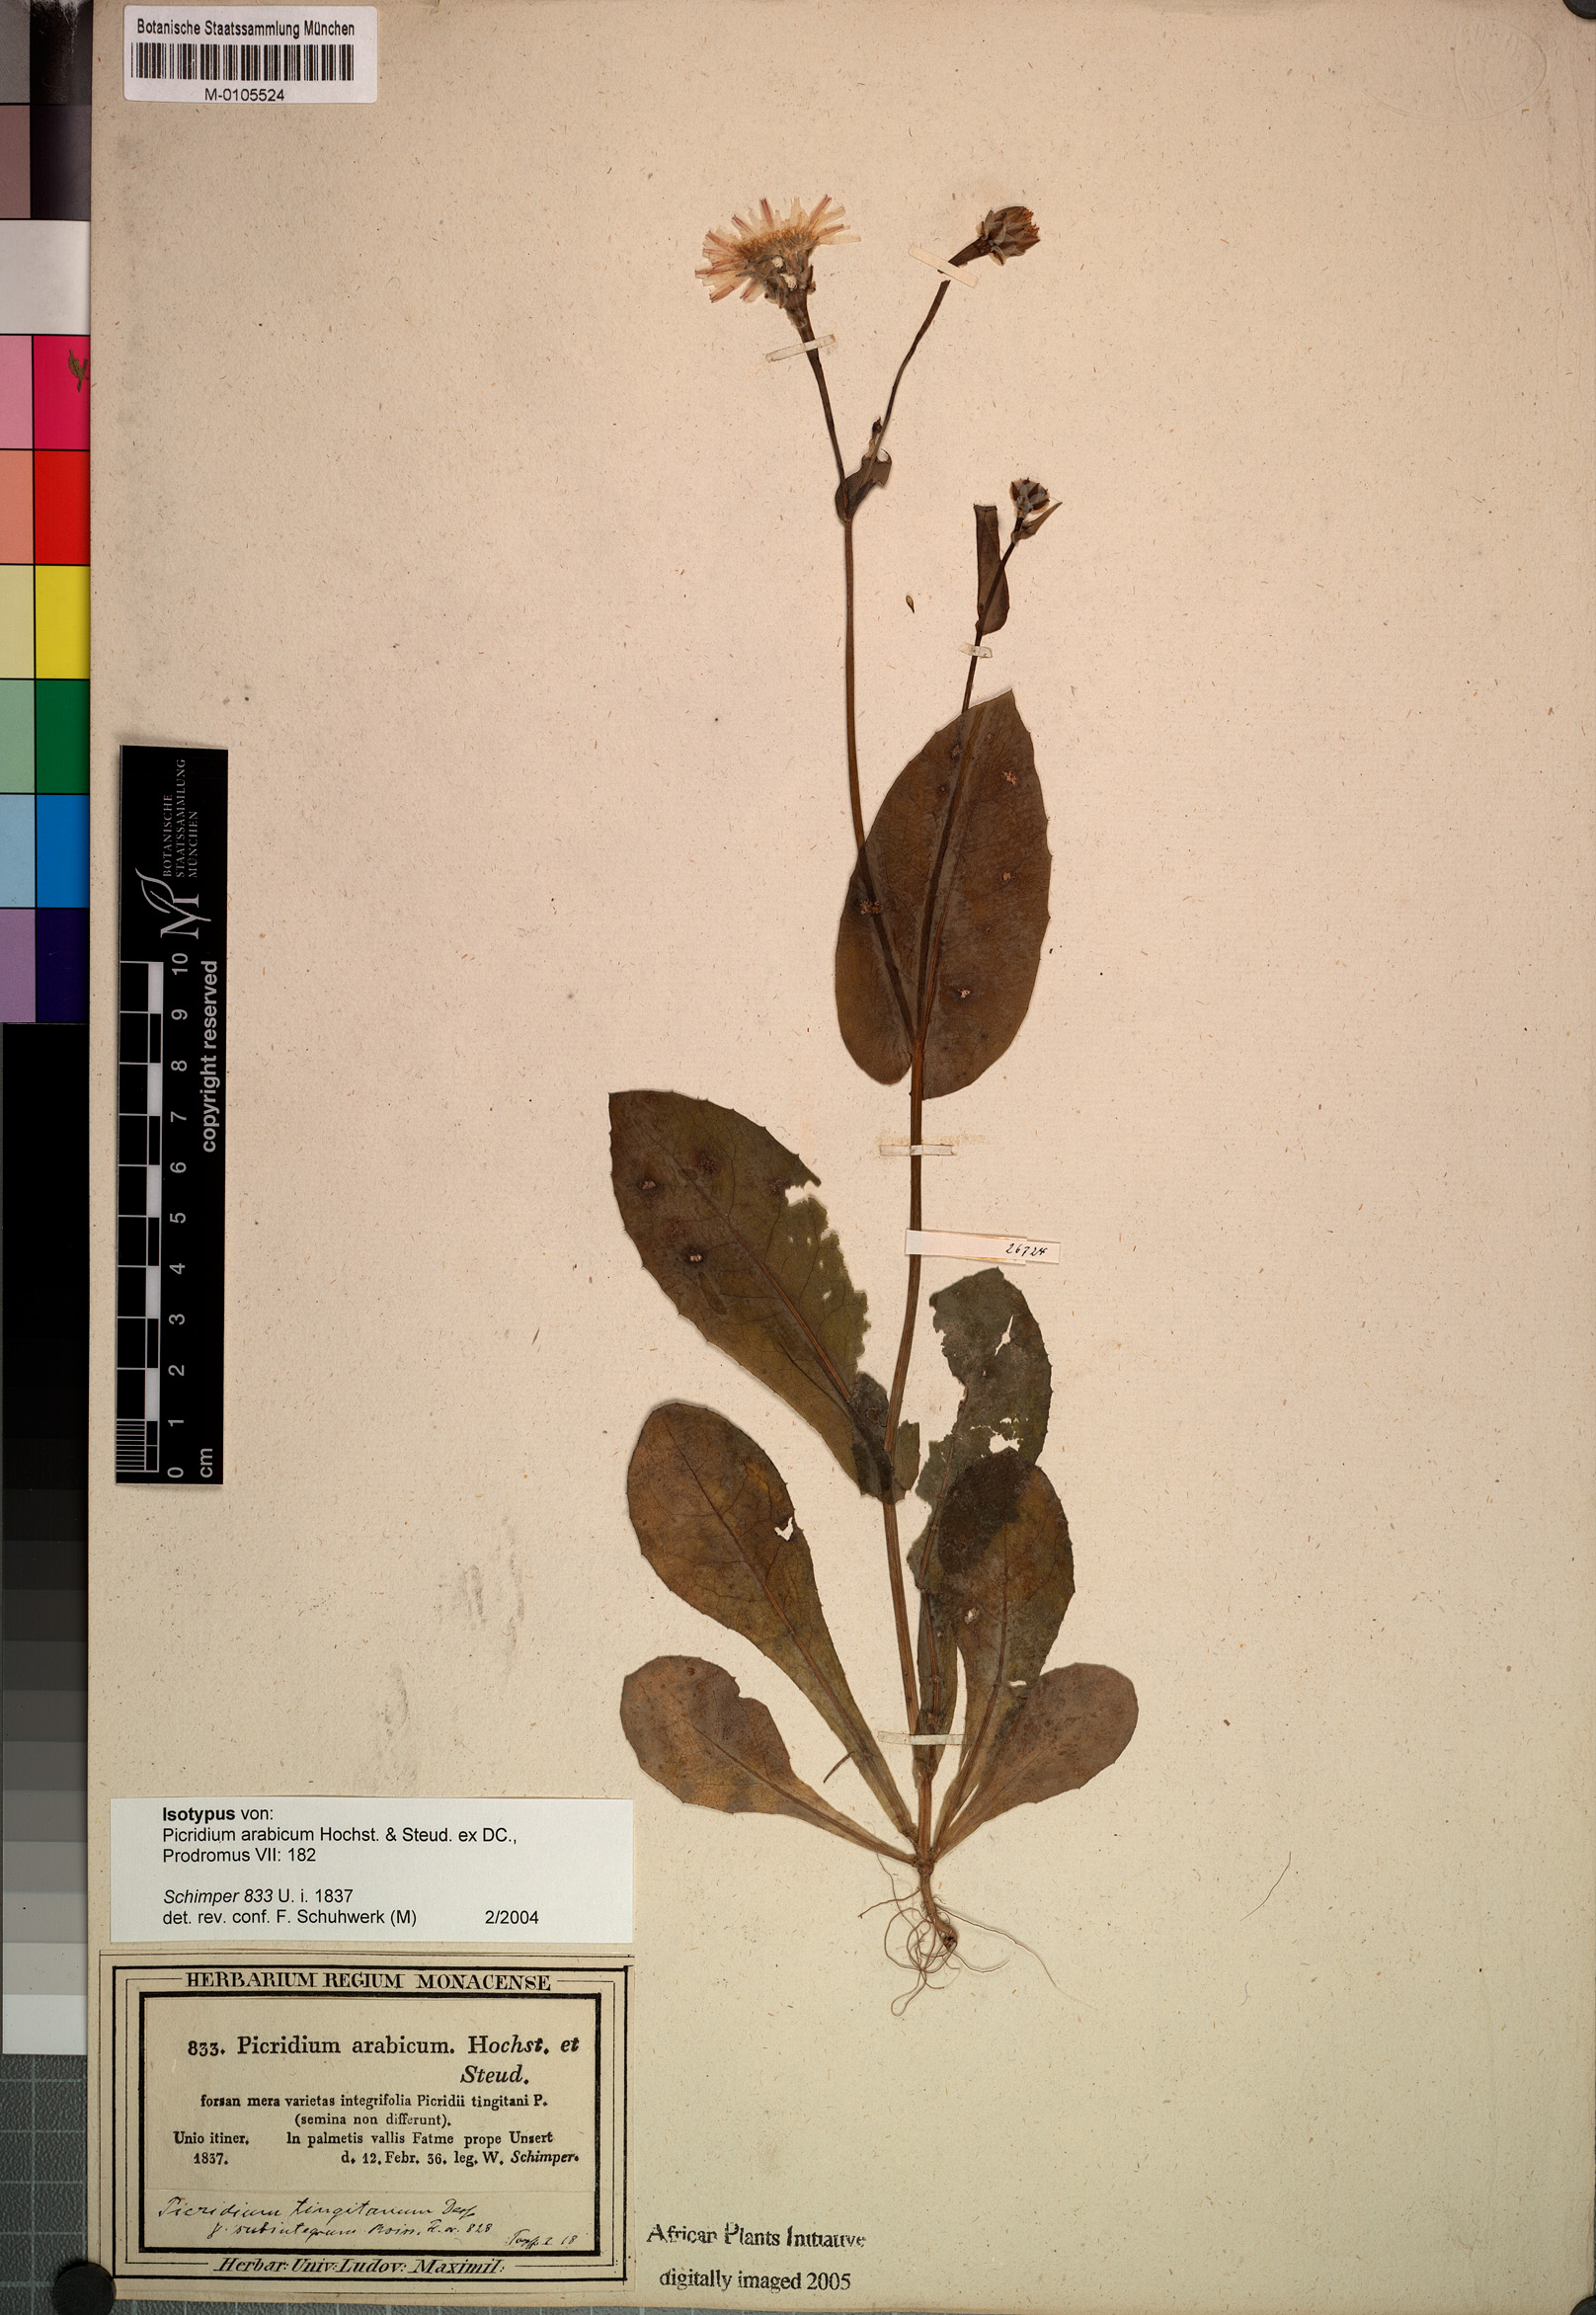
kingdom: Plantae
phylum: Tracheophyta
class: Magnoliopsida
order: Asterales
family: Asteraceae
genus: Reichardia
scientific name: Reichardia tingitana
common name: Reichardia
